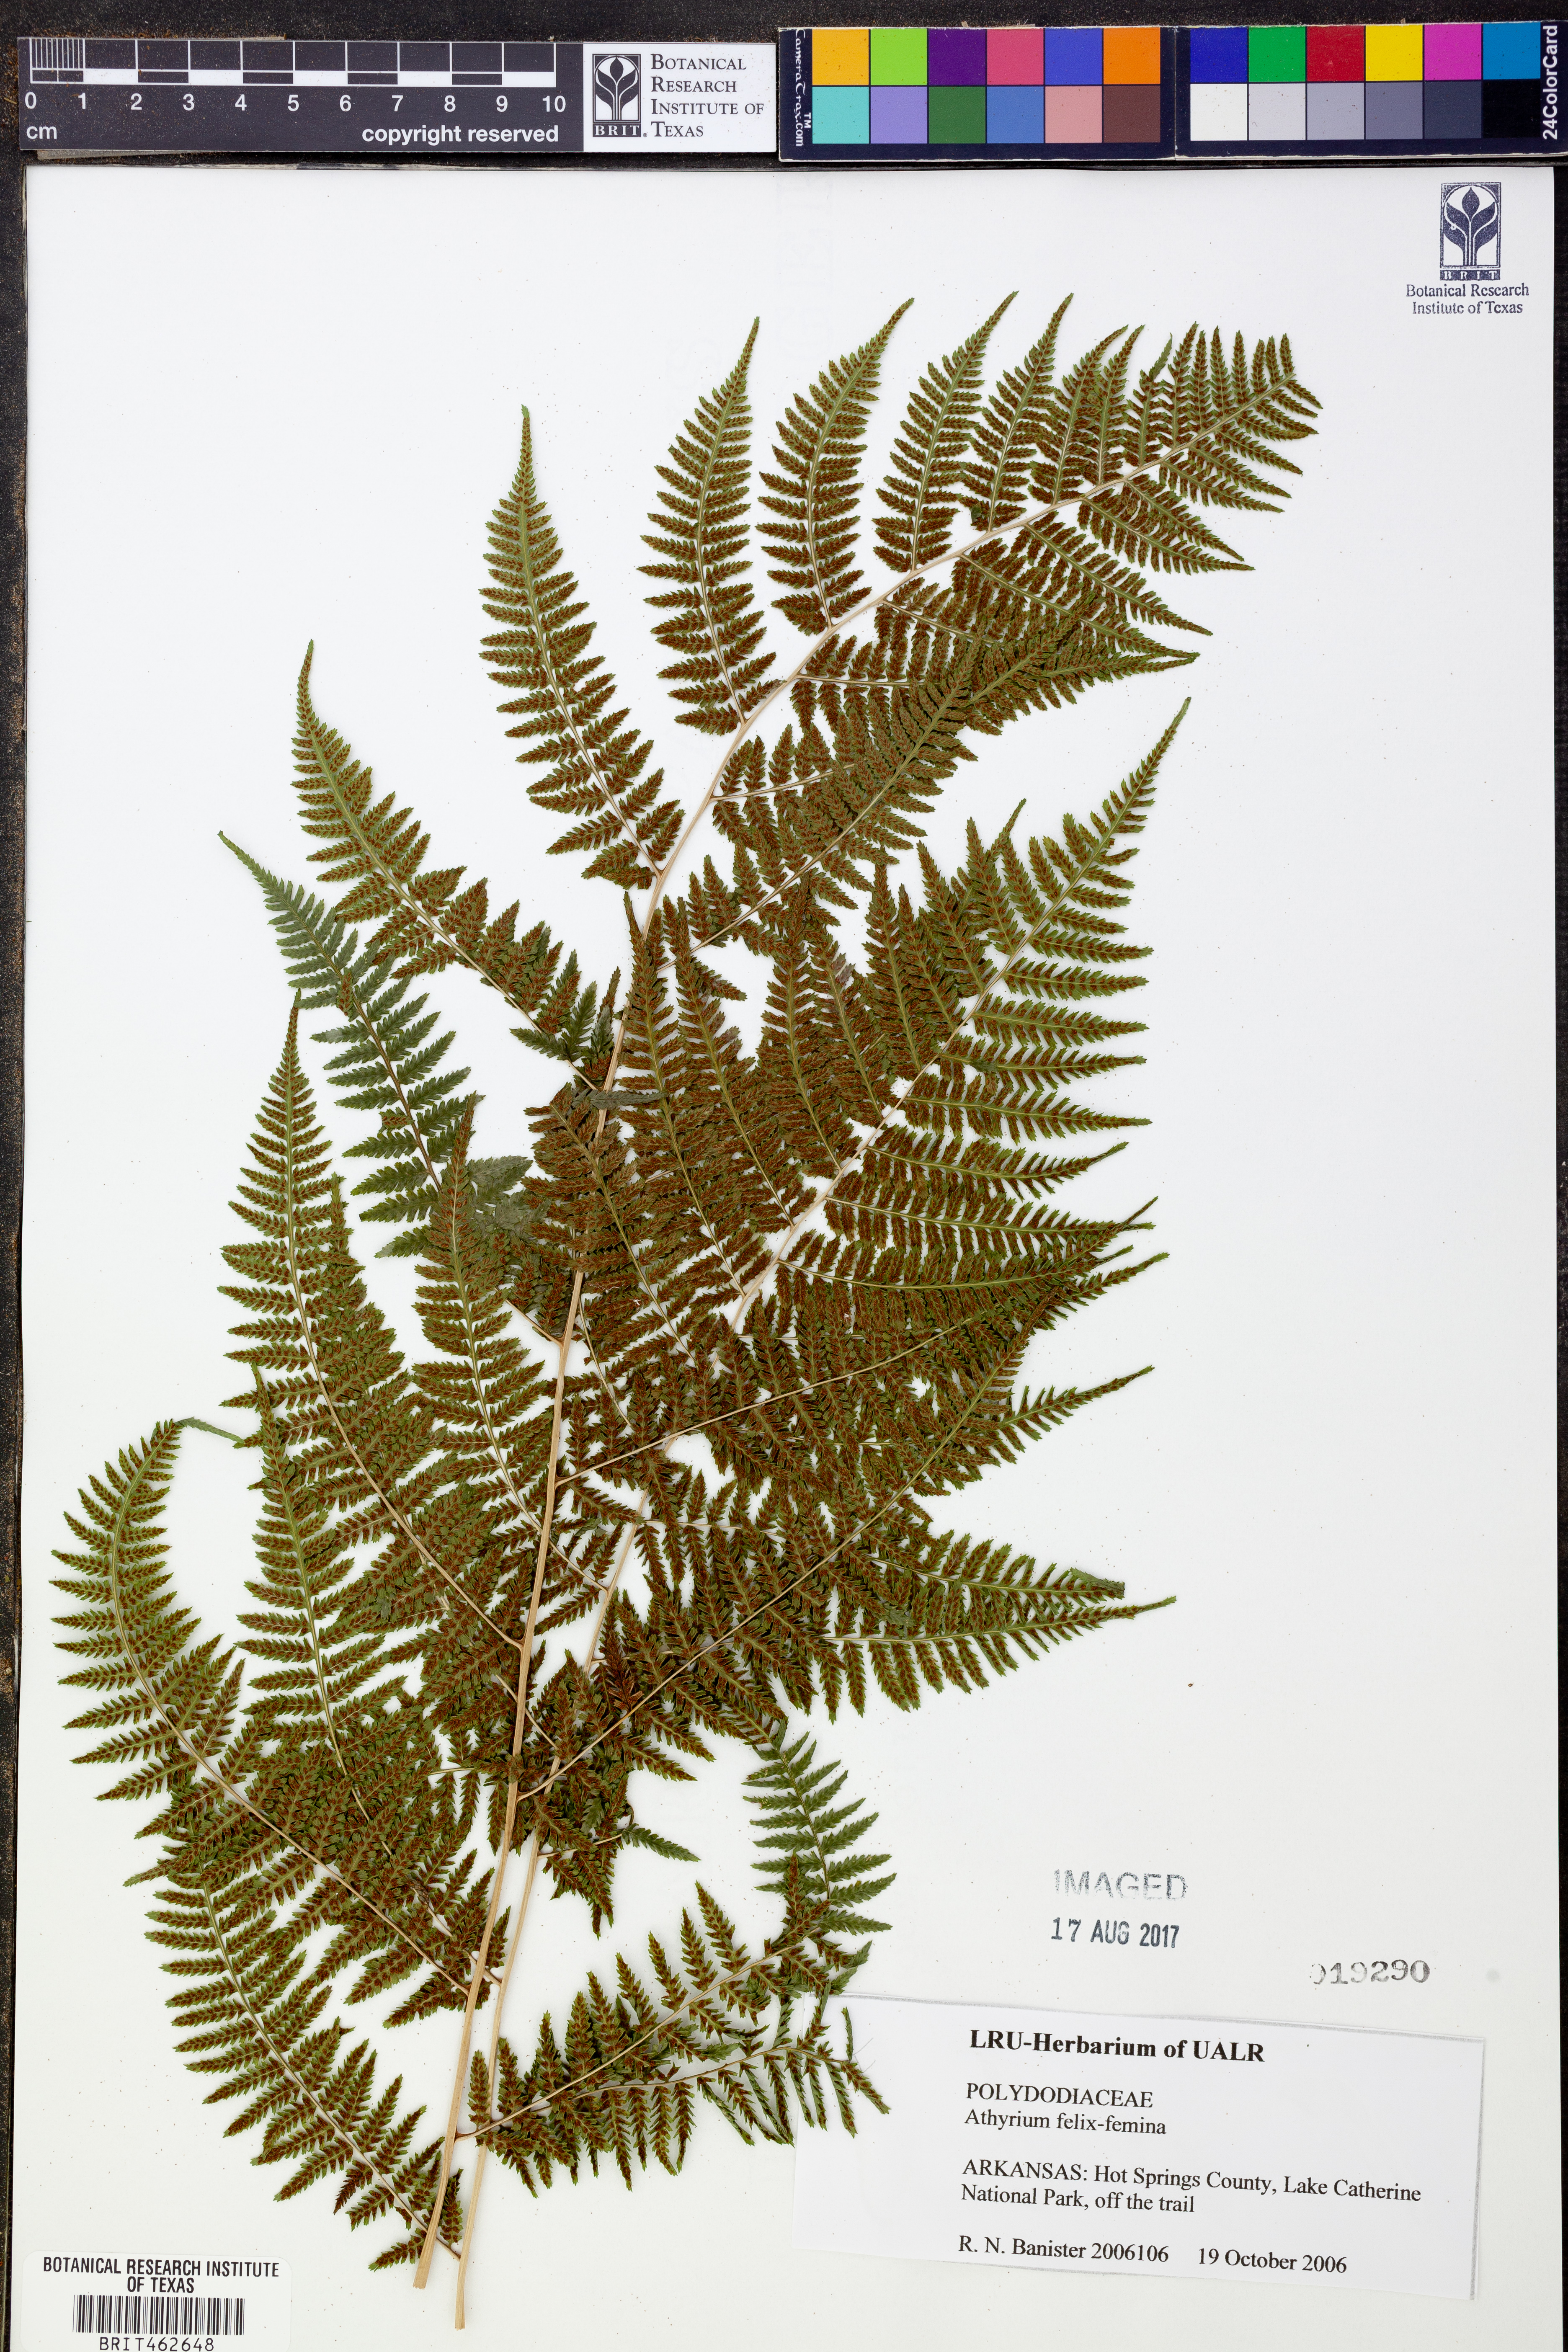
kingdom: Plantae
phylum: Tracheophyta
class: Polypodiopsida
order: Polypodiales
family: Athyriaceae
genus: Athyrium
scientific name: Athyrium filix-femina
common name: Lady fern
